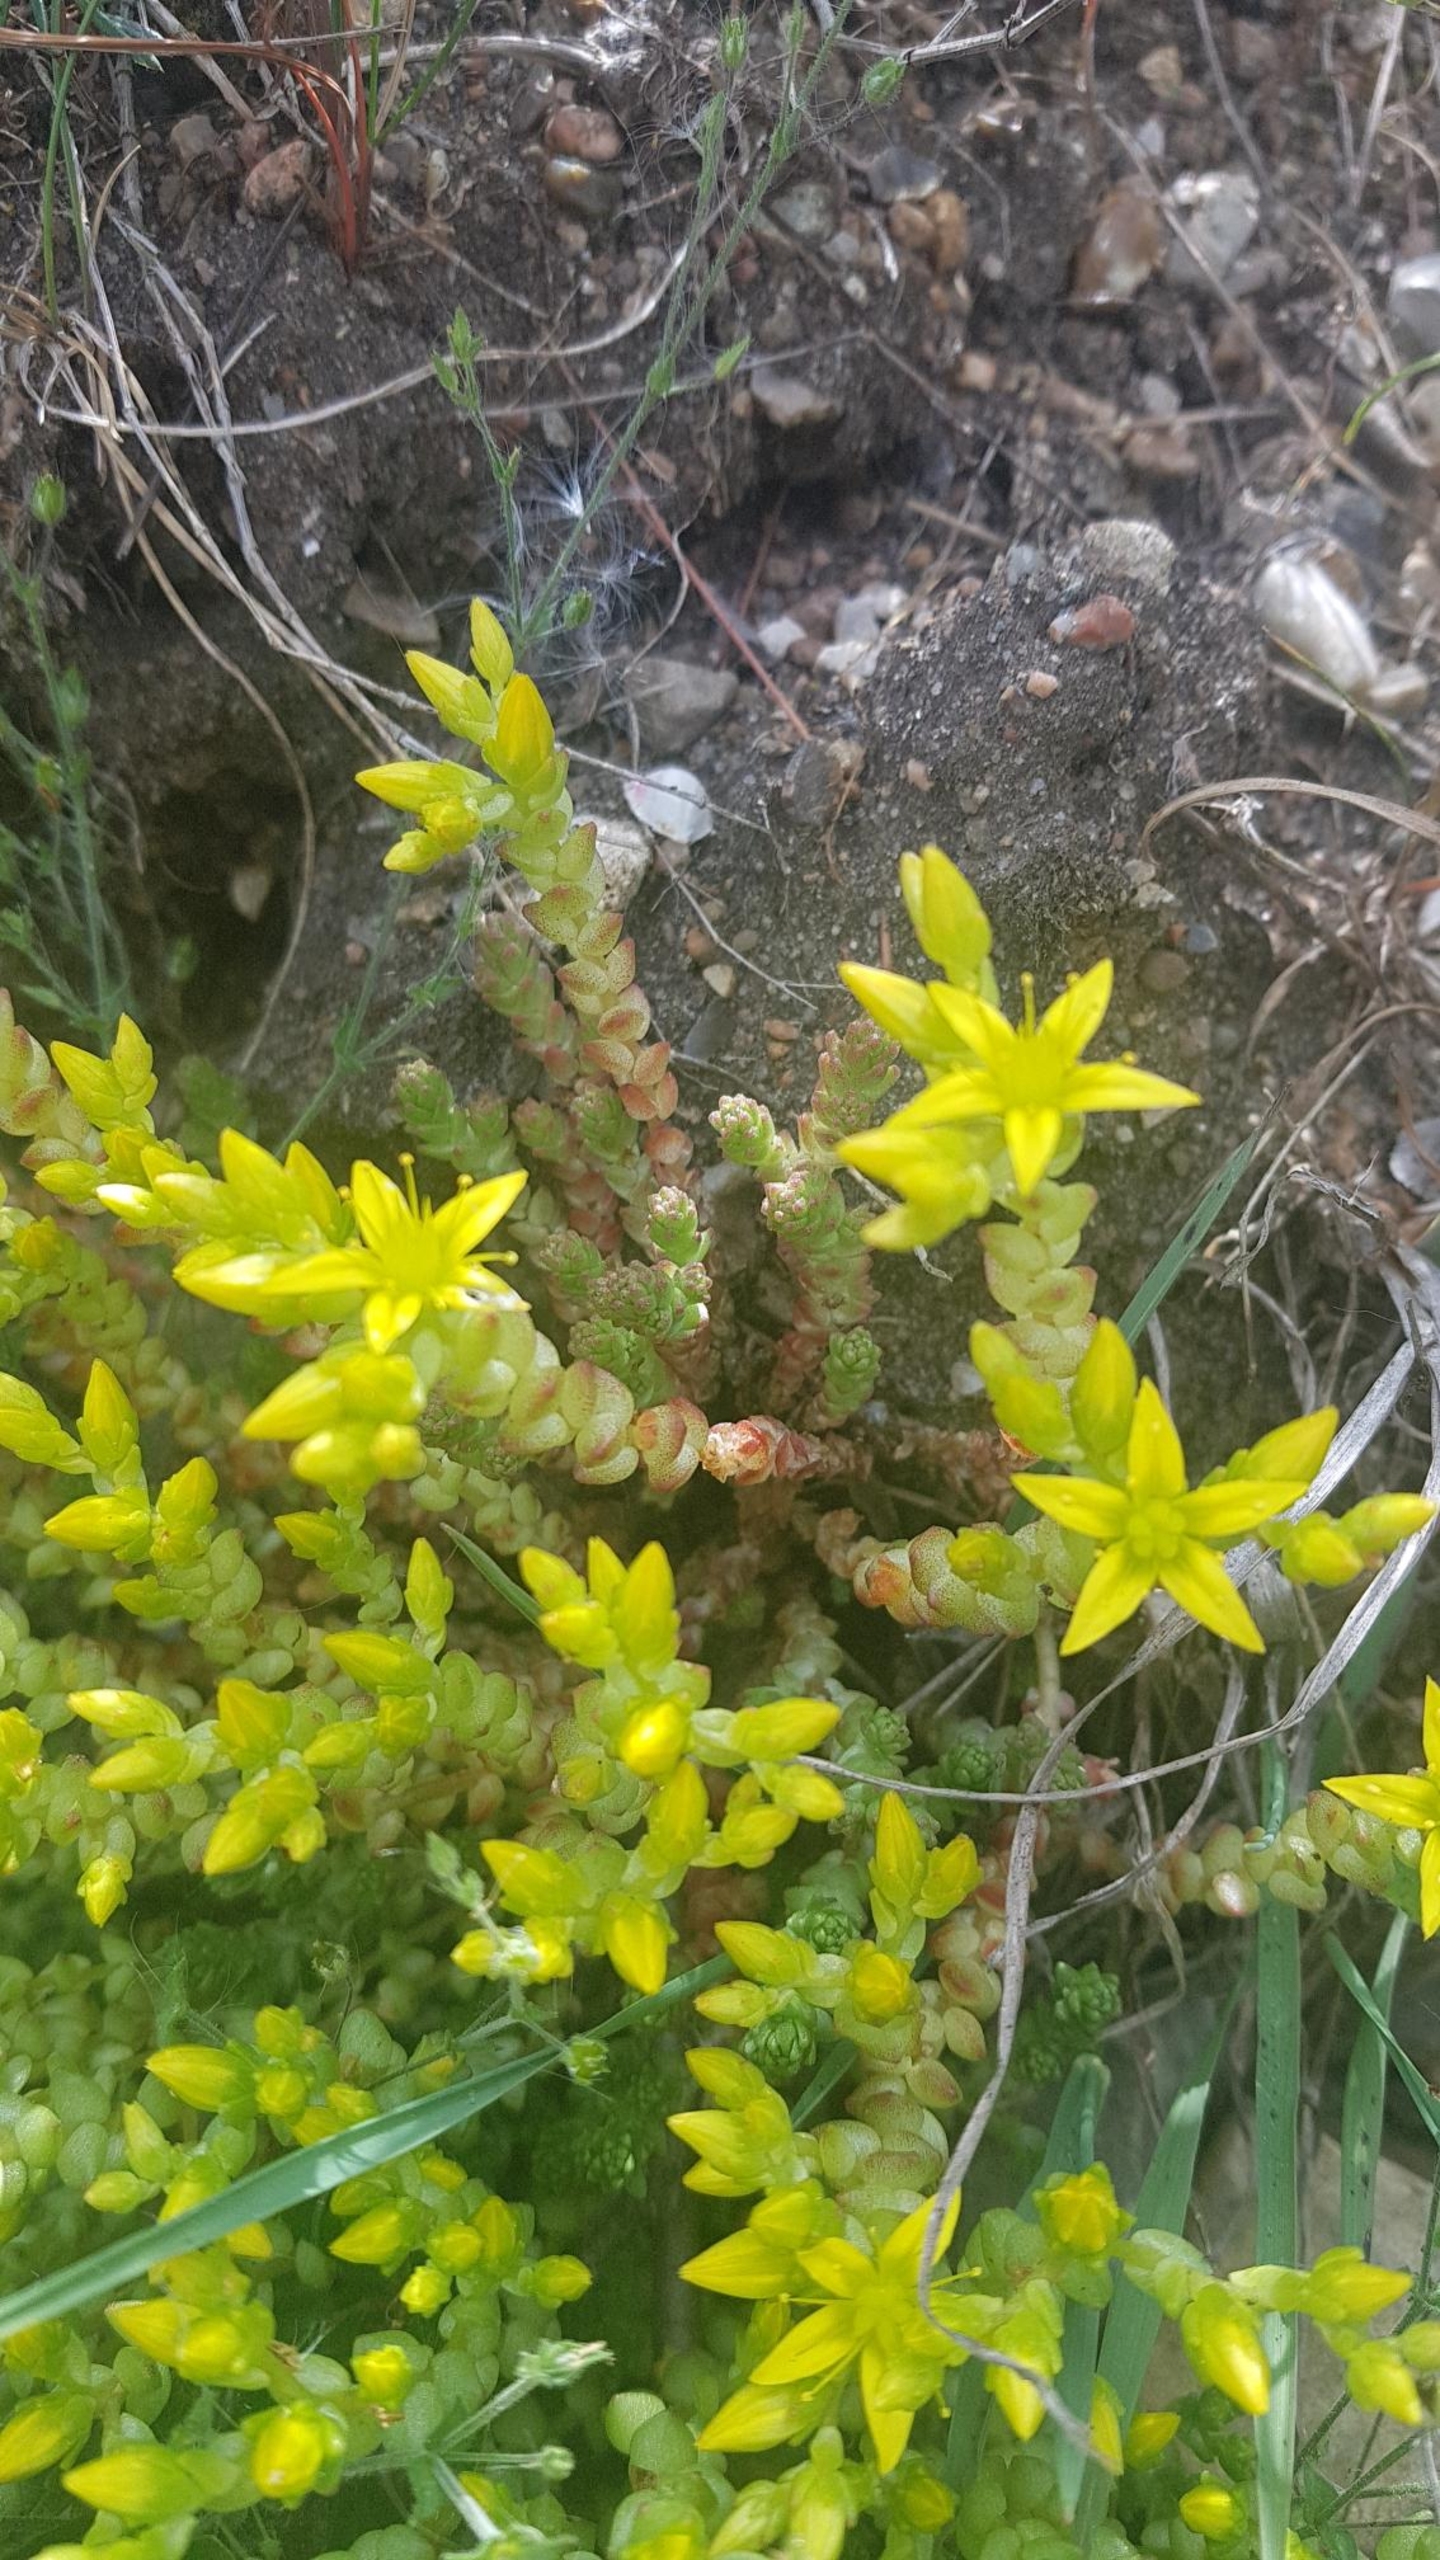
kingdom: Plantae
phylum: Tracheophyta
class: Magnoliopsida
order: Saxifragales
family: Crassulaceae
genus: Sedum
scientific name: Sedum acre
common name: Bidende stenurt
